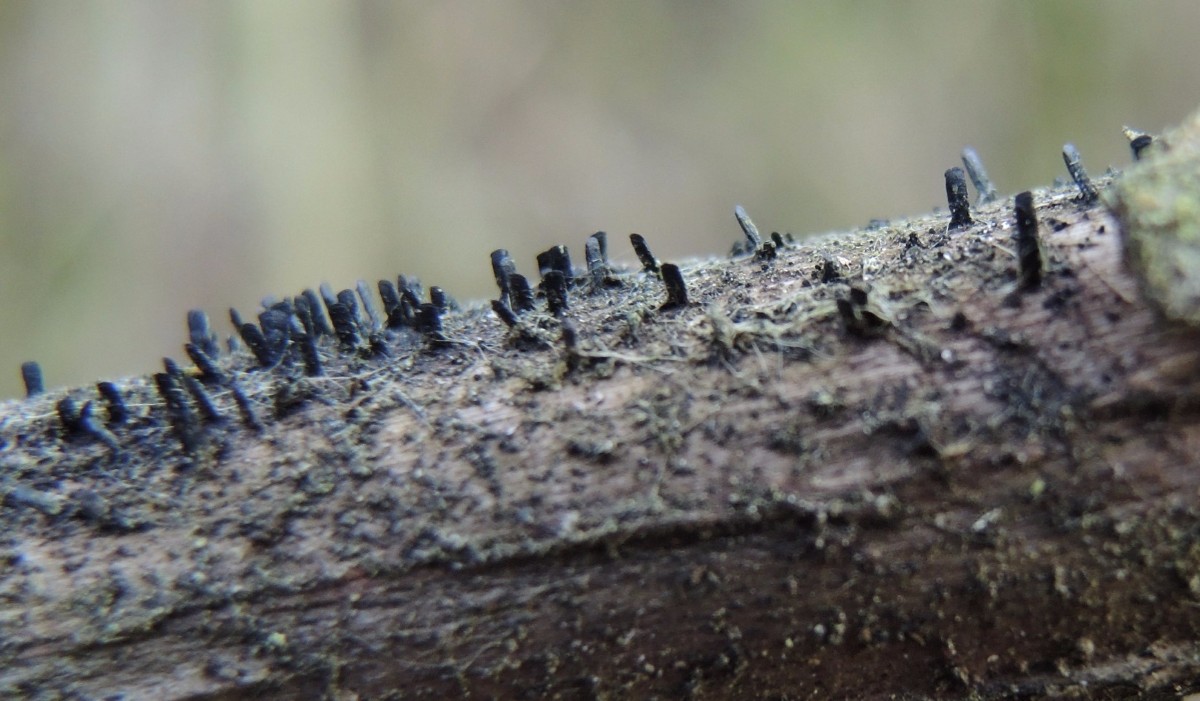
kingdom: Fungi
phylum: Ascomycota
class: Eurotiomycetes
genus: Glyphium
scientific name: Glyphium elatum
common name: kuløkse
